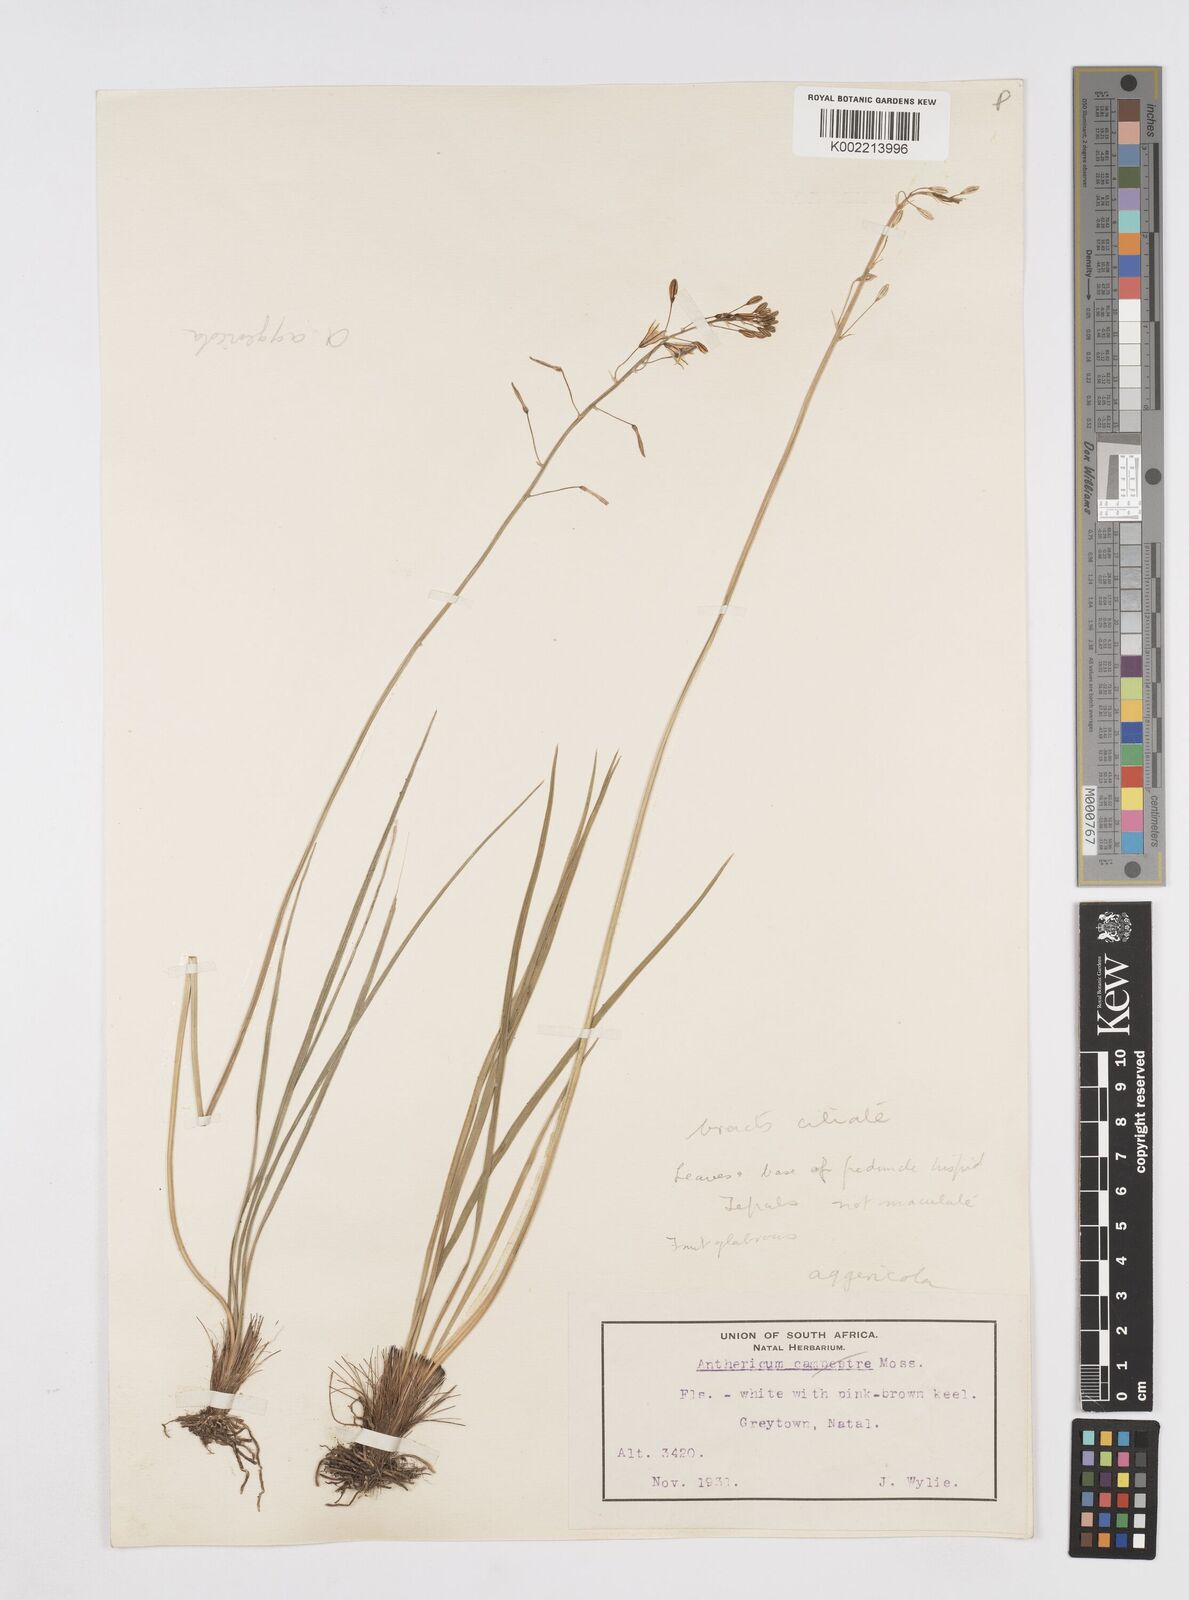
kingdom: Plantae
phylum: Tracheophyta
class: Liliopsida
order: Asparagales
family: Asphodelaceae
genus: Trachyandra
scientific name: Trachyandra asperata
